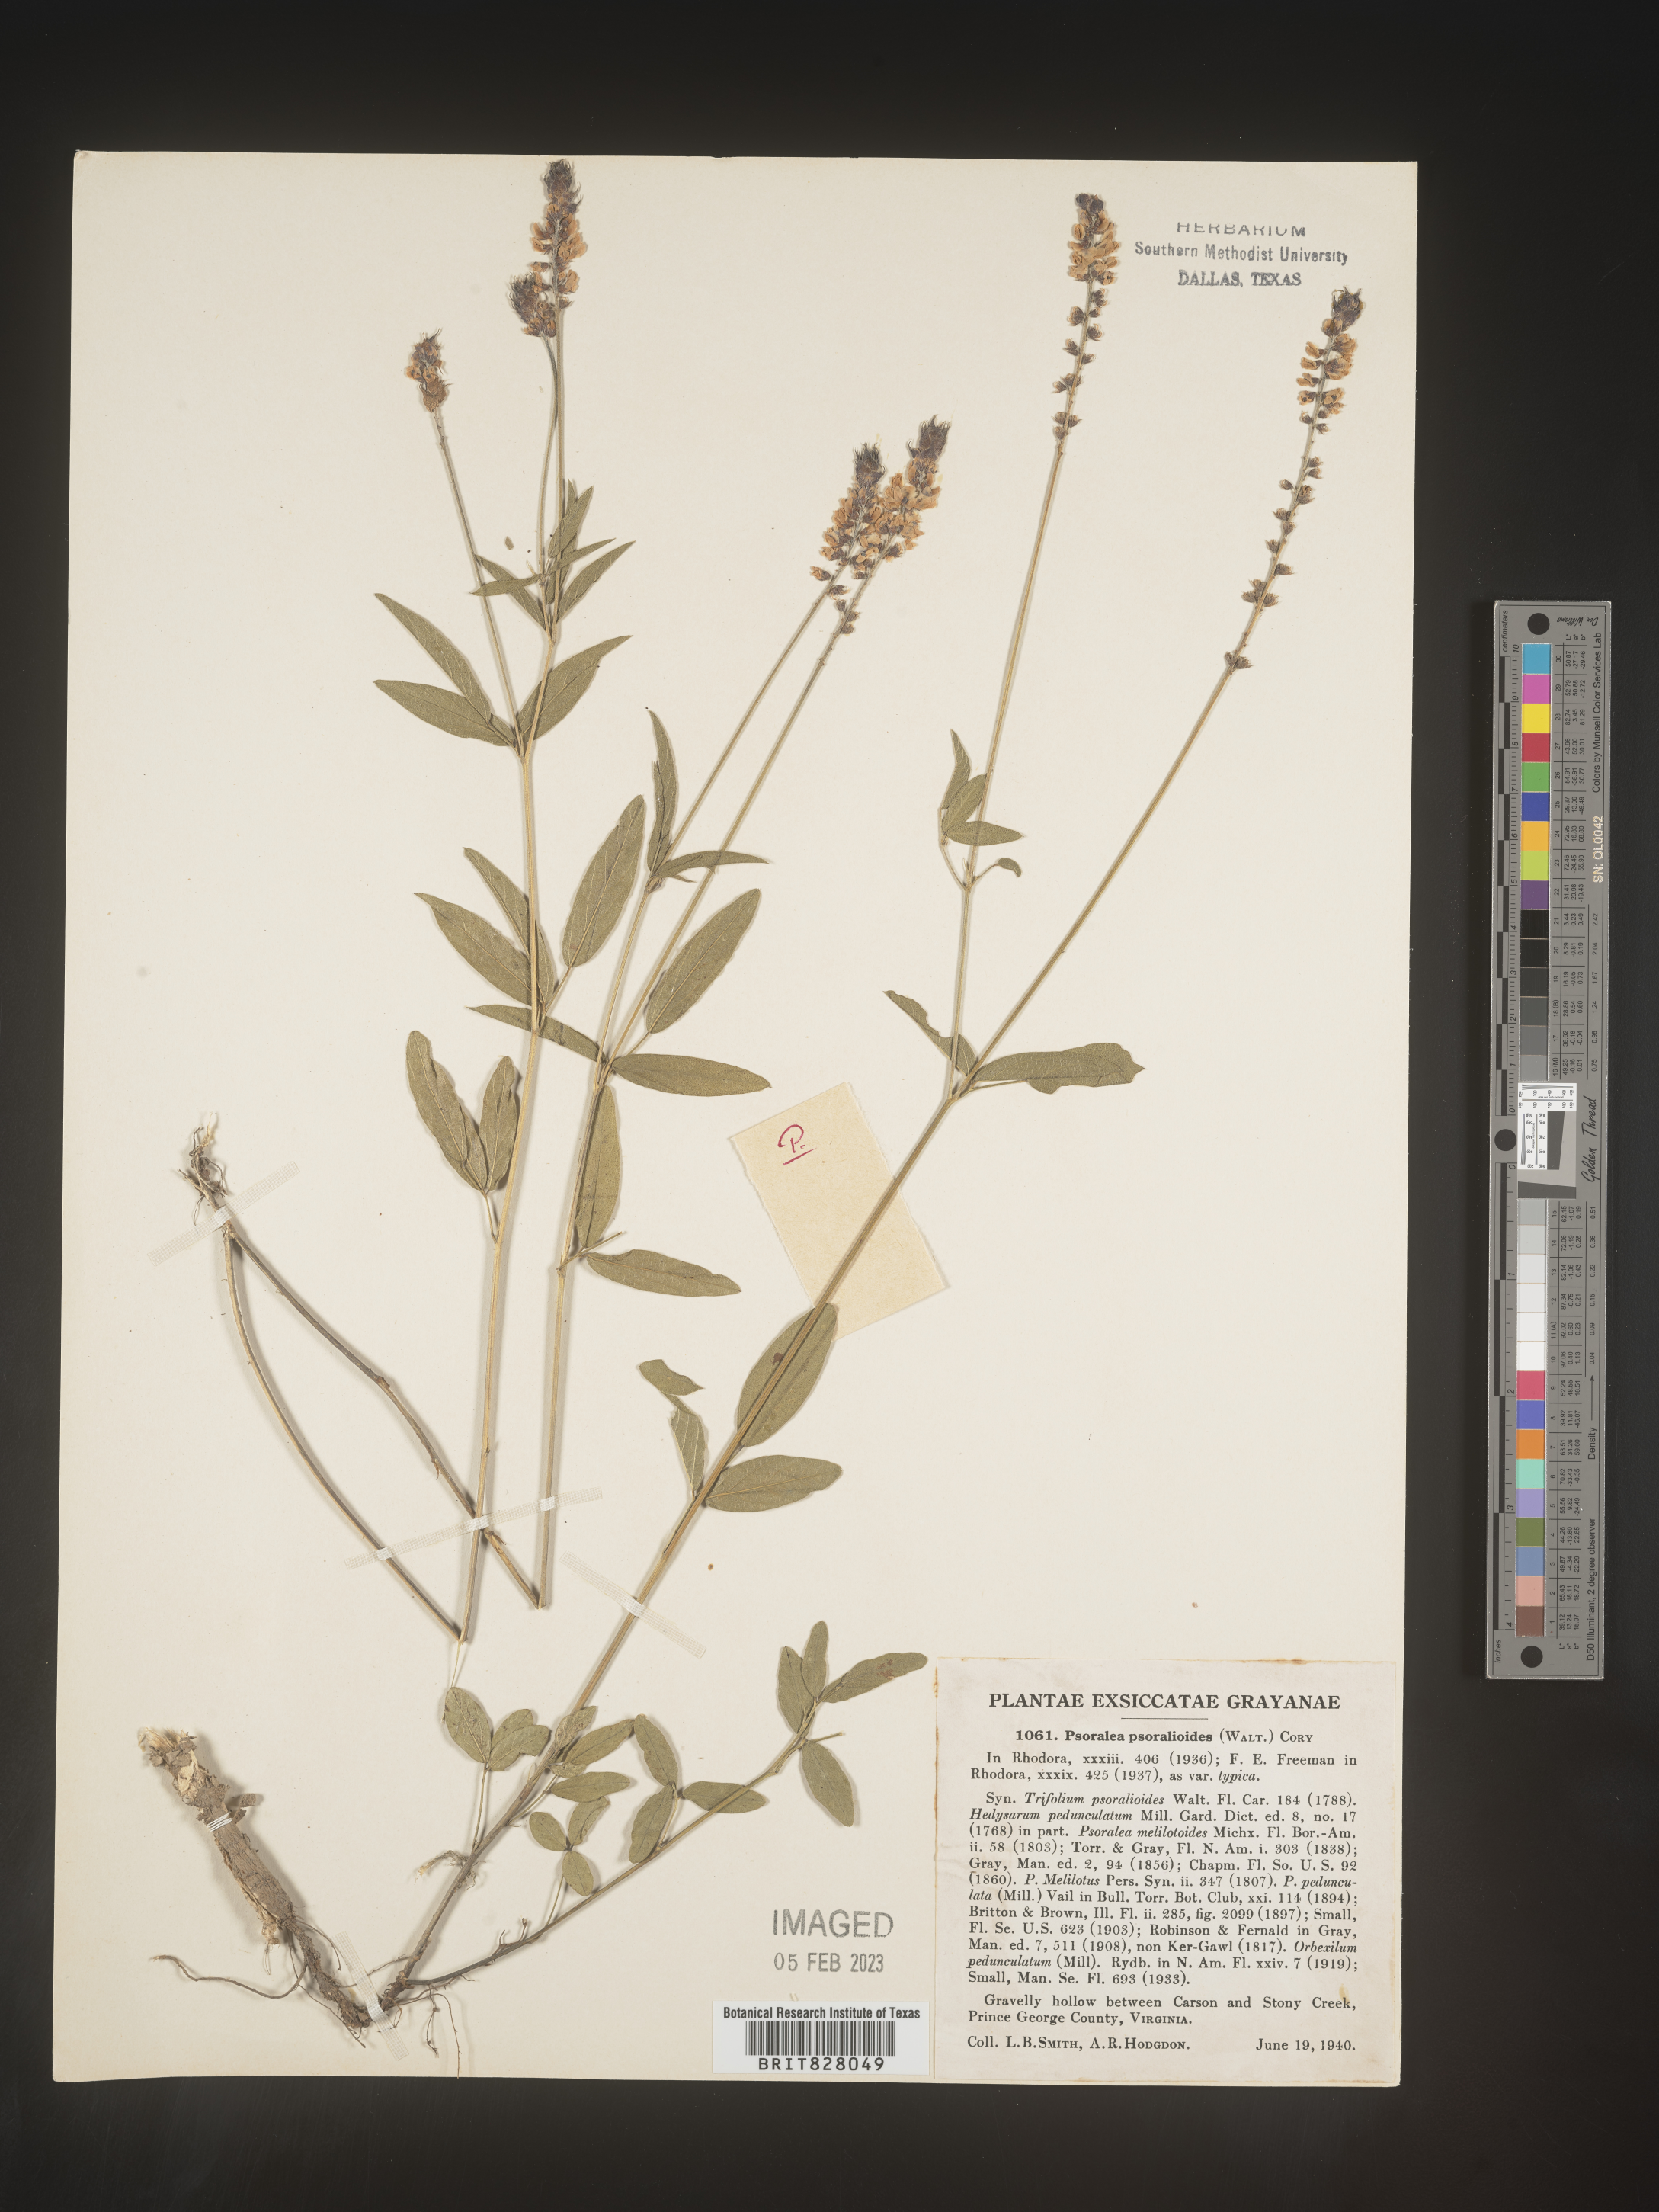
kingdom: Plantae
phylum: Tracheophyta
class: Magnoliopsida
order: Fabales
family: Fabaceae
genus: Orbexilum
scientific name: Orbexilum pedunculatum
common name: Sampson's snakeroot
